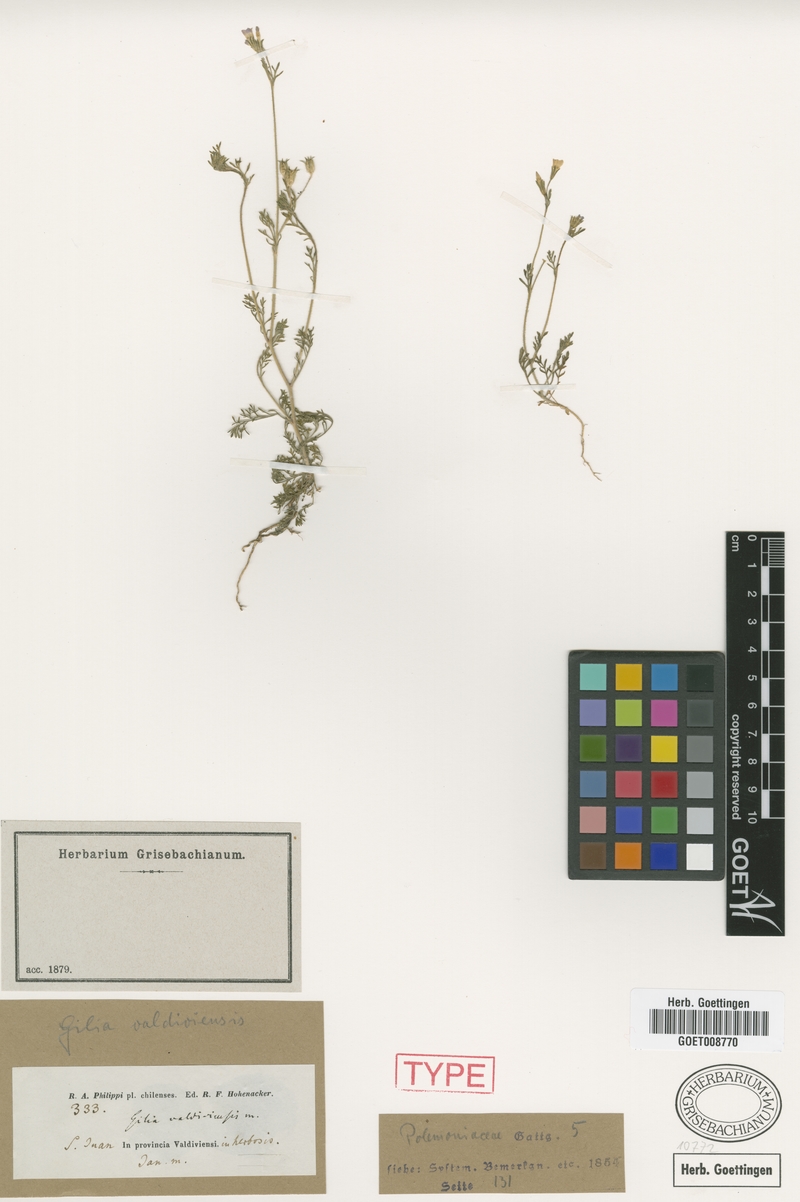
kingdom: Plantae
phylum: Tracheophyta
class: Magnoliopsida
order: Ericales
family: Polemoniaceae
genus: Gilia
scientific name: Gilia valdiviensis
